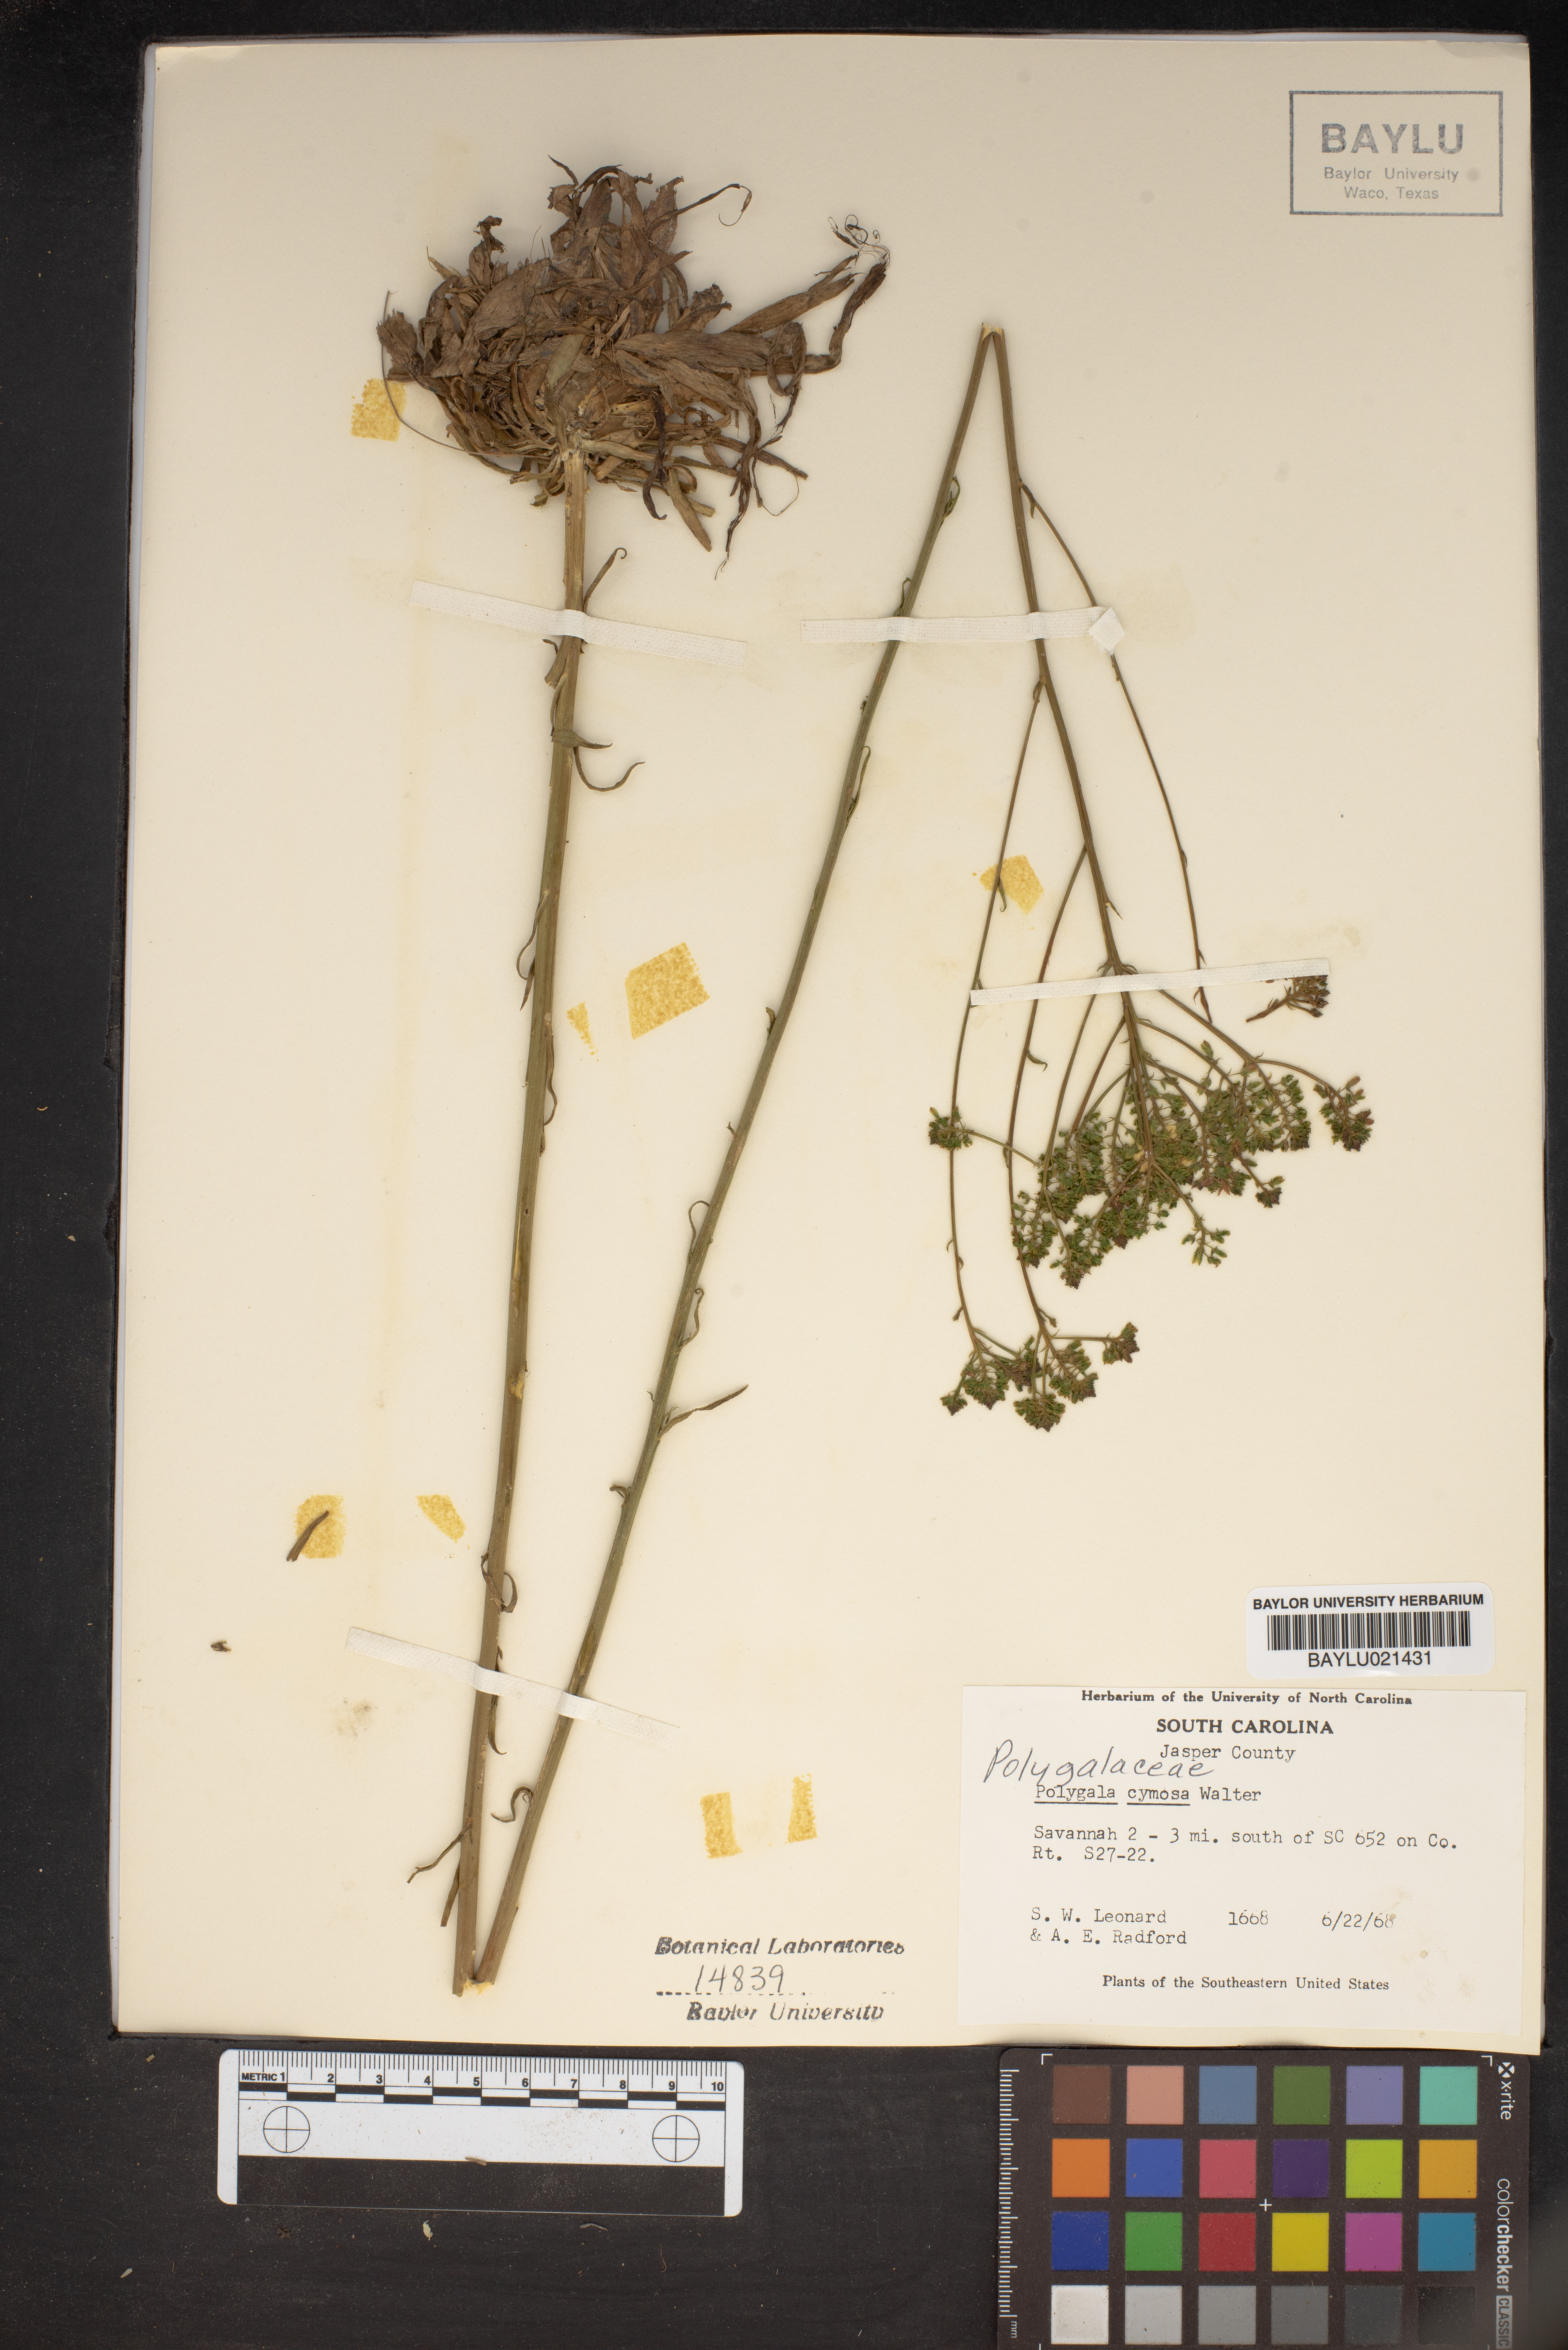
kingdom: Plantae
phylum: Tracheophyta
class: Magnoliopsida
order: Fabales
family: Polygalaceae
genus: Polygala
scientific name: Polygala cymosa
